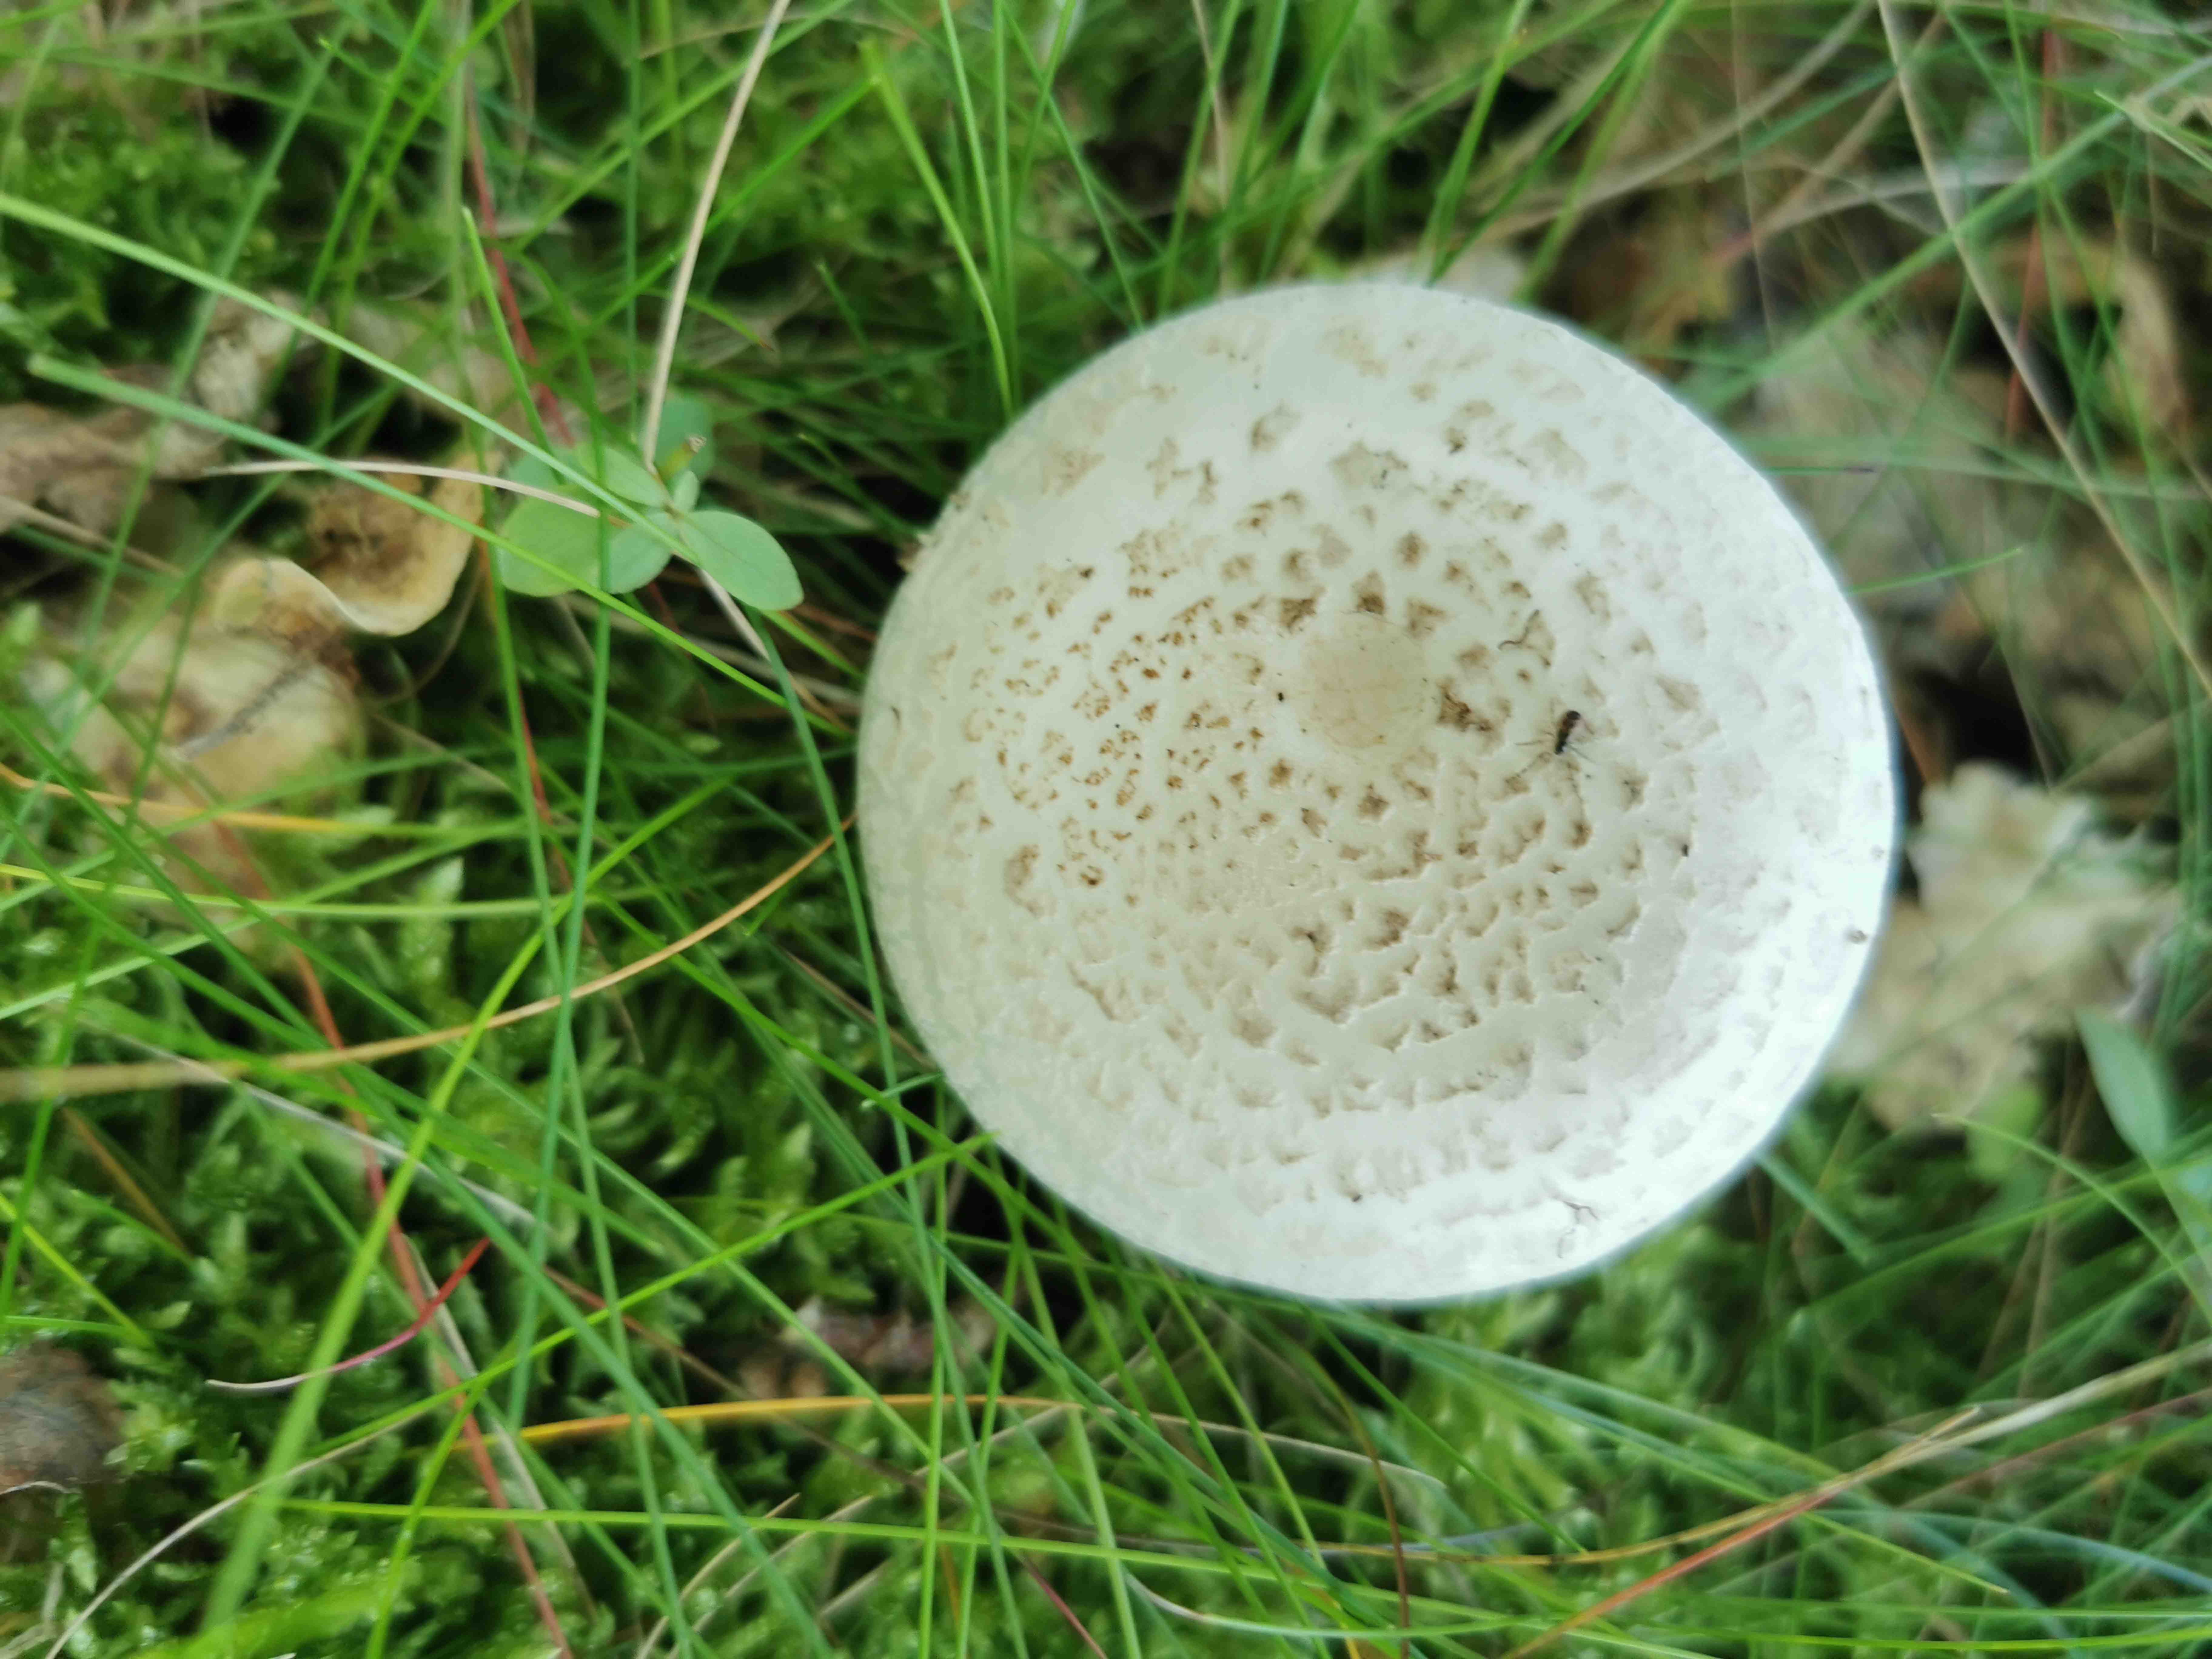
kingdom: Fungi
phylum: Basidiomycota
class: Agaricomycetes
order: Agaricales
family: Amanitaceae
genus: Amanita
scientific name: Amanita citrina
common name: False death-cap
